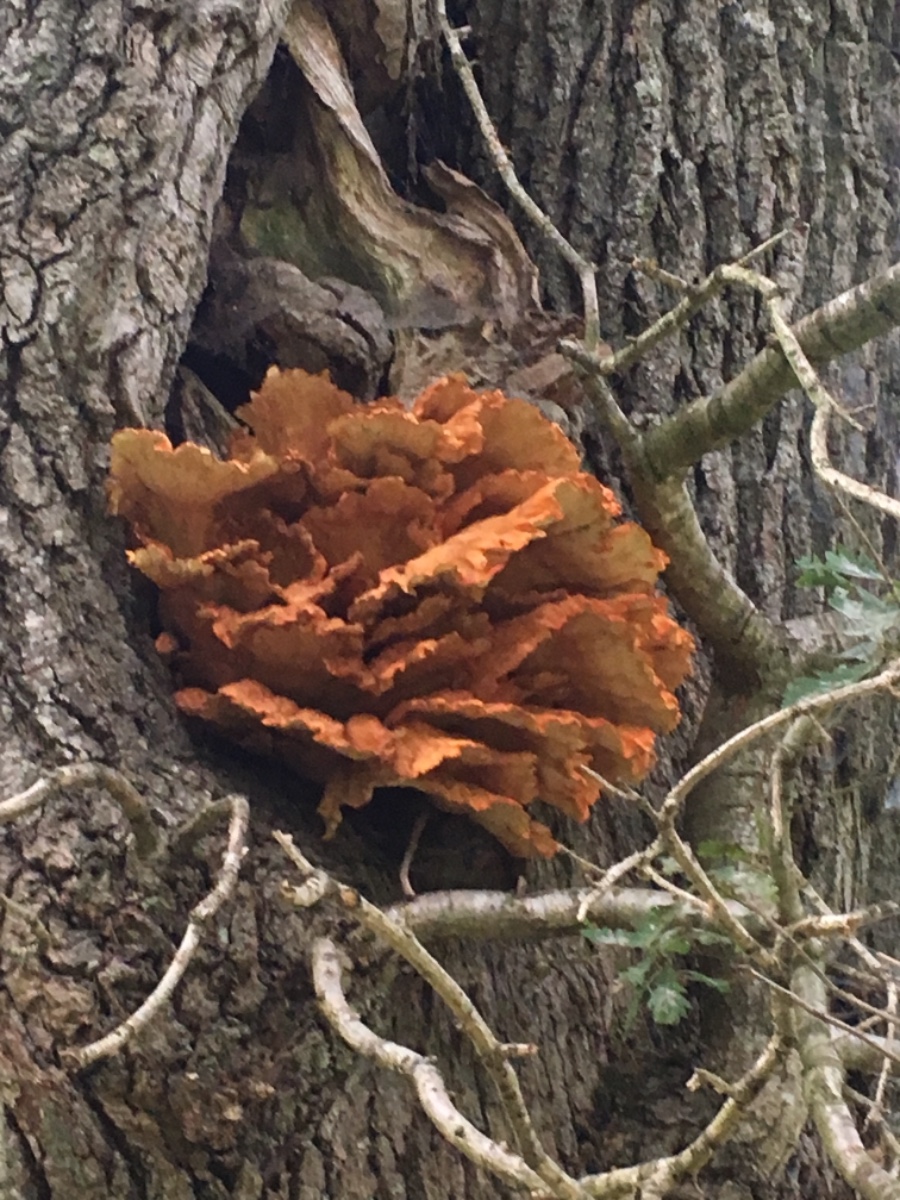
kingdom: Fungi
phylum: Basidiomycota
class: Agaricomycetes
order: Polyporales
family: Laetiporaceae
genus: Laetiporus
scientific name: Laetiporus sulphureus
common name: svovlporesvamp
